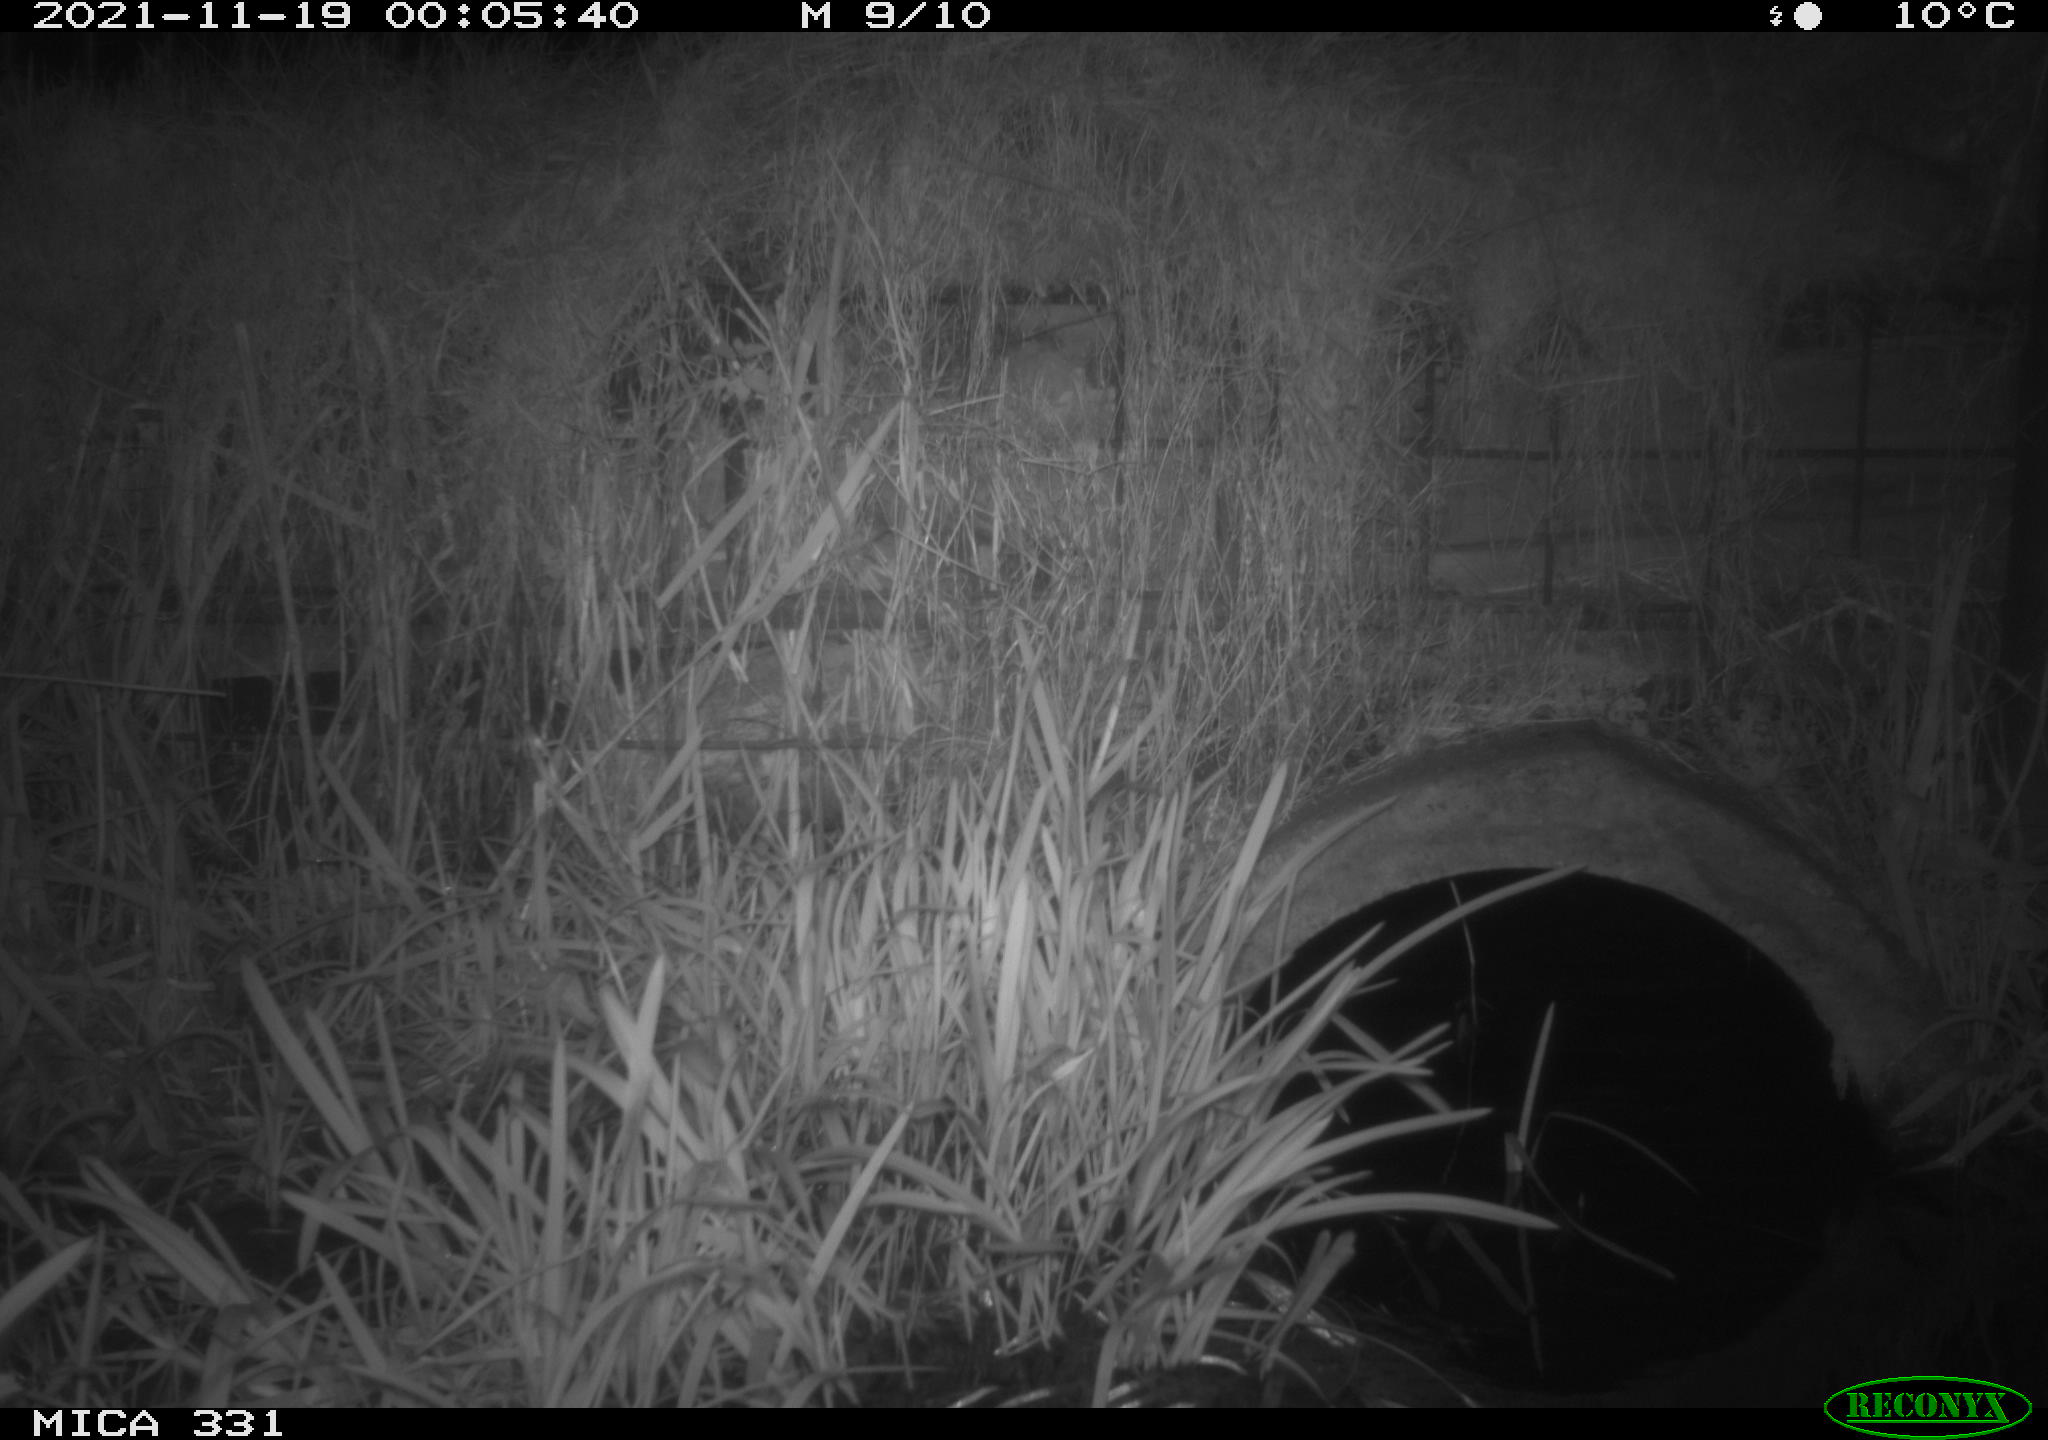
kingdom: Animalia
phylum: Chordata
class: Mammalia
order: Rodentia
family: Muridae
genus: Rattus
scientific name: Rattus norvegicus
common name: Brown rat
